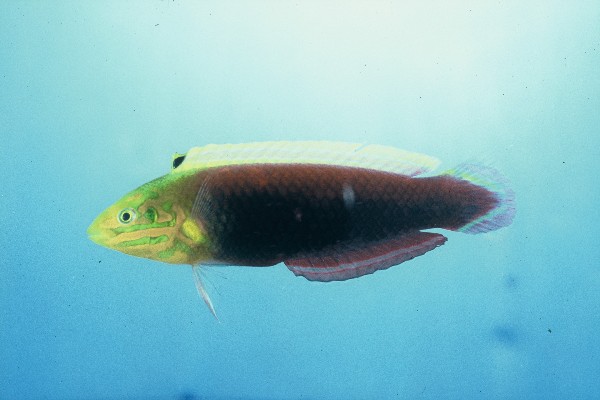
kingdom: Animalia
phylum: Chordata
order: Perciformes
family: Labridae
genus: Halichoeres
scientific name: Halichoeres iridis
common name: Rainbow wrasse
